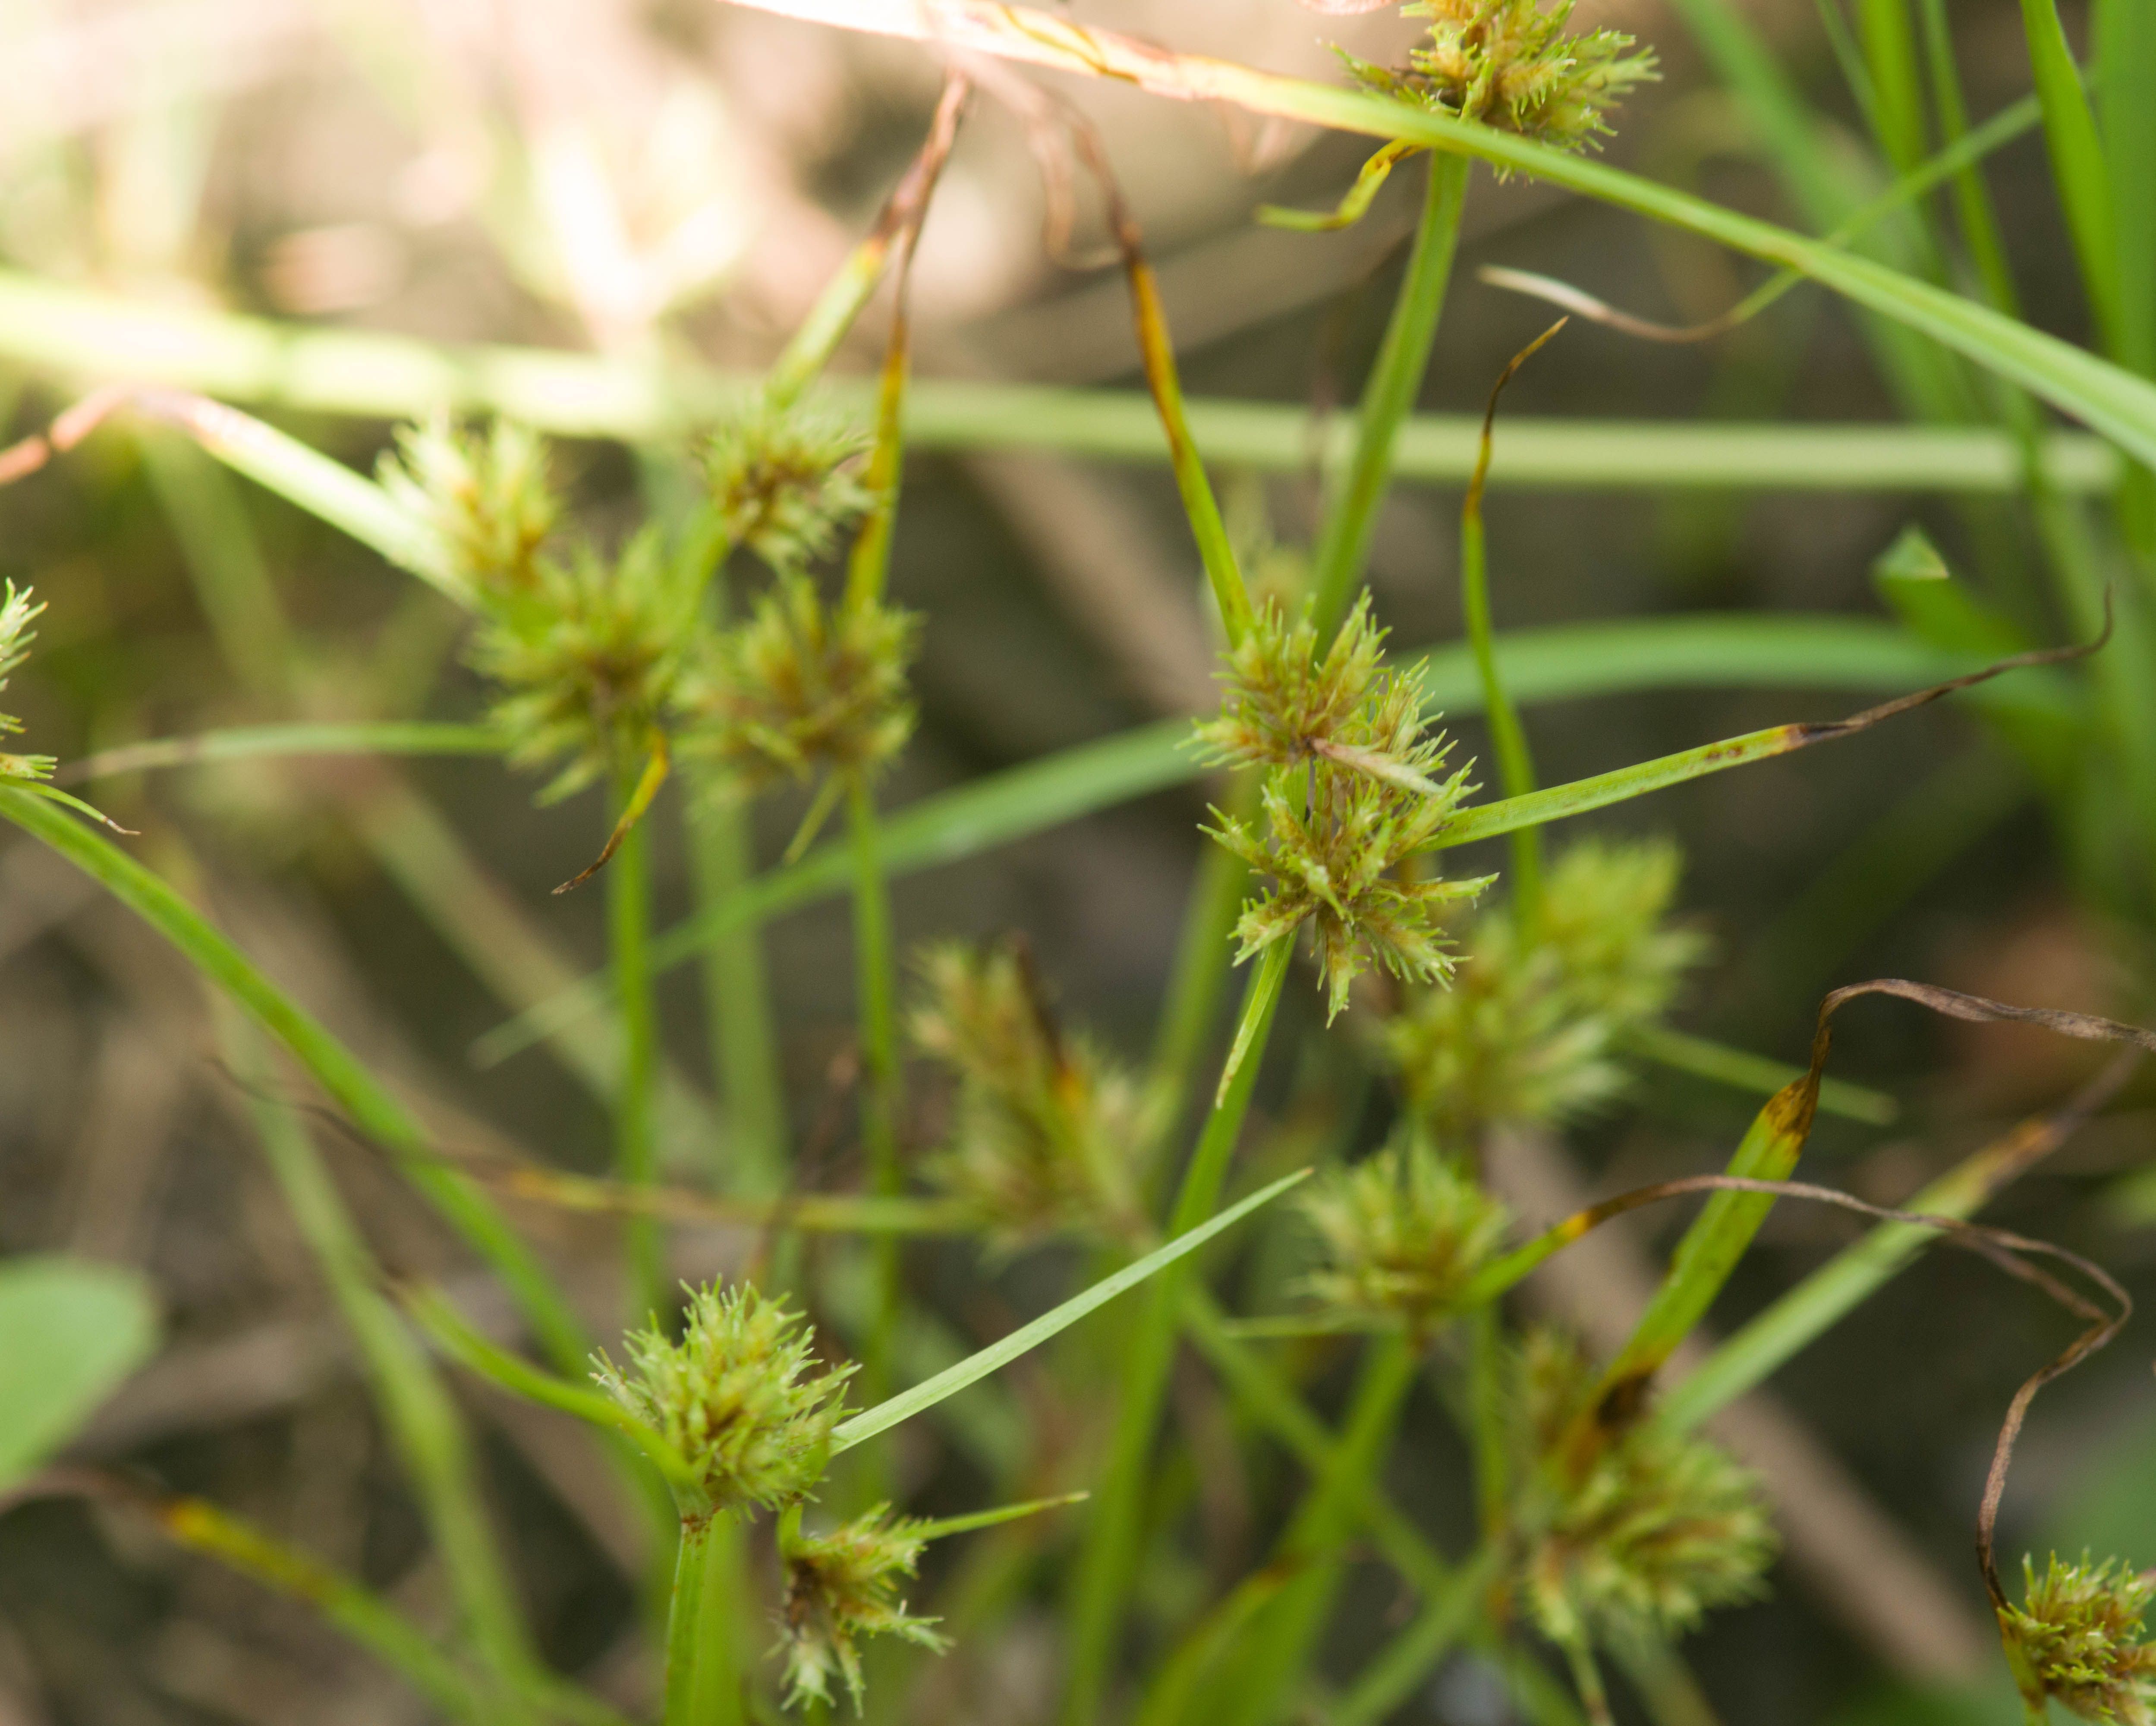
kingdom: Plantae
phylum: Tracheophyta
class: Liliopsida
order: Poales
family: Cyperaceae
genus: Cyperus
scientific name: Cyperus acuminatus
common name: Short-pointed cyperus
